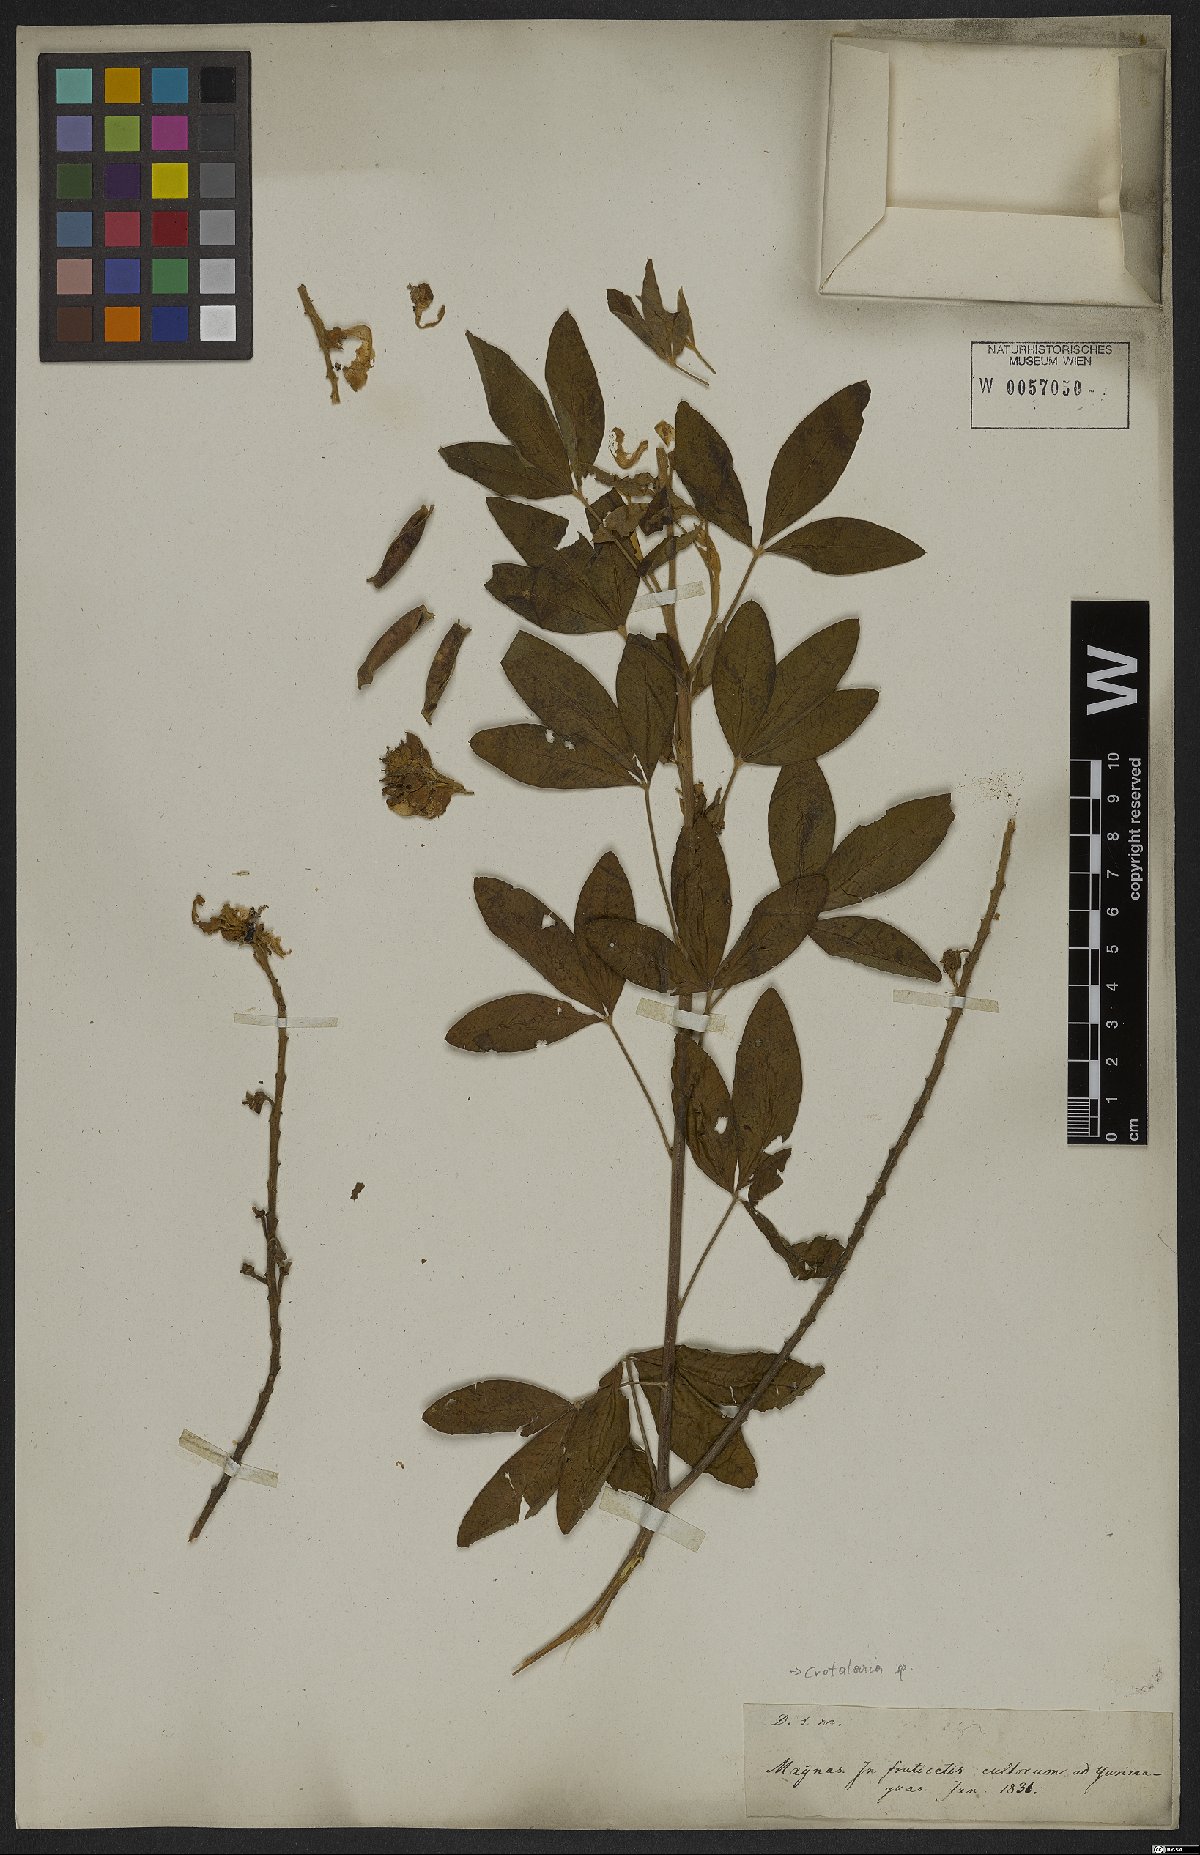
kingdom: Plantae
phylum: Tracheophyta
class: Magnoliopsida
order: Fabales
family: Fabaceae
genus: Crotalaria
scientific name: Crotalaria
